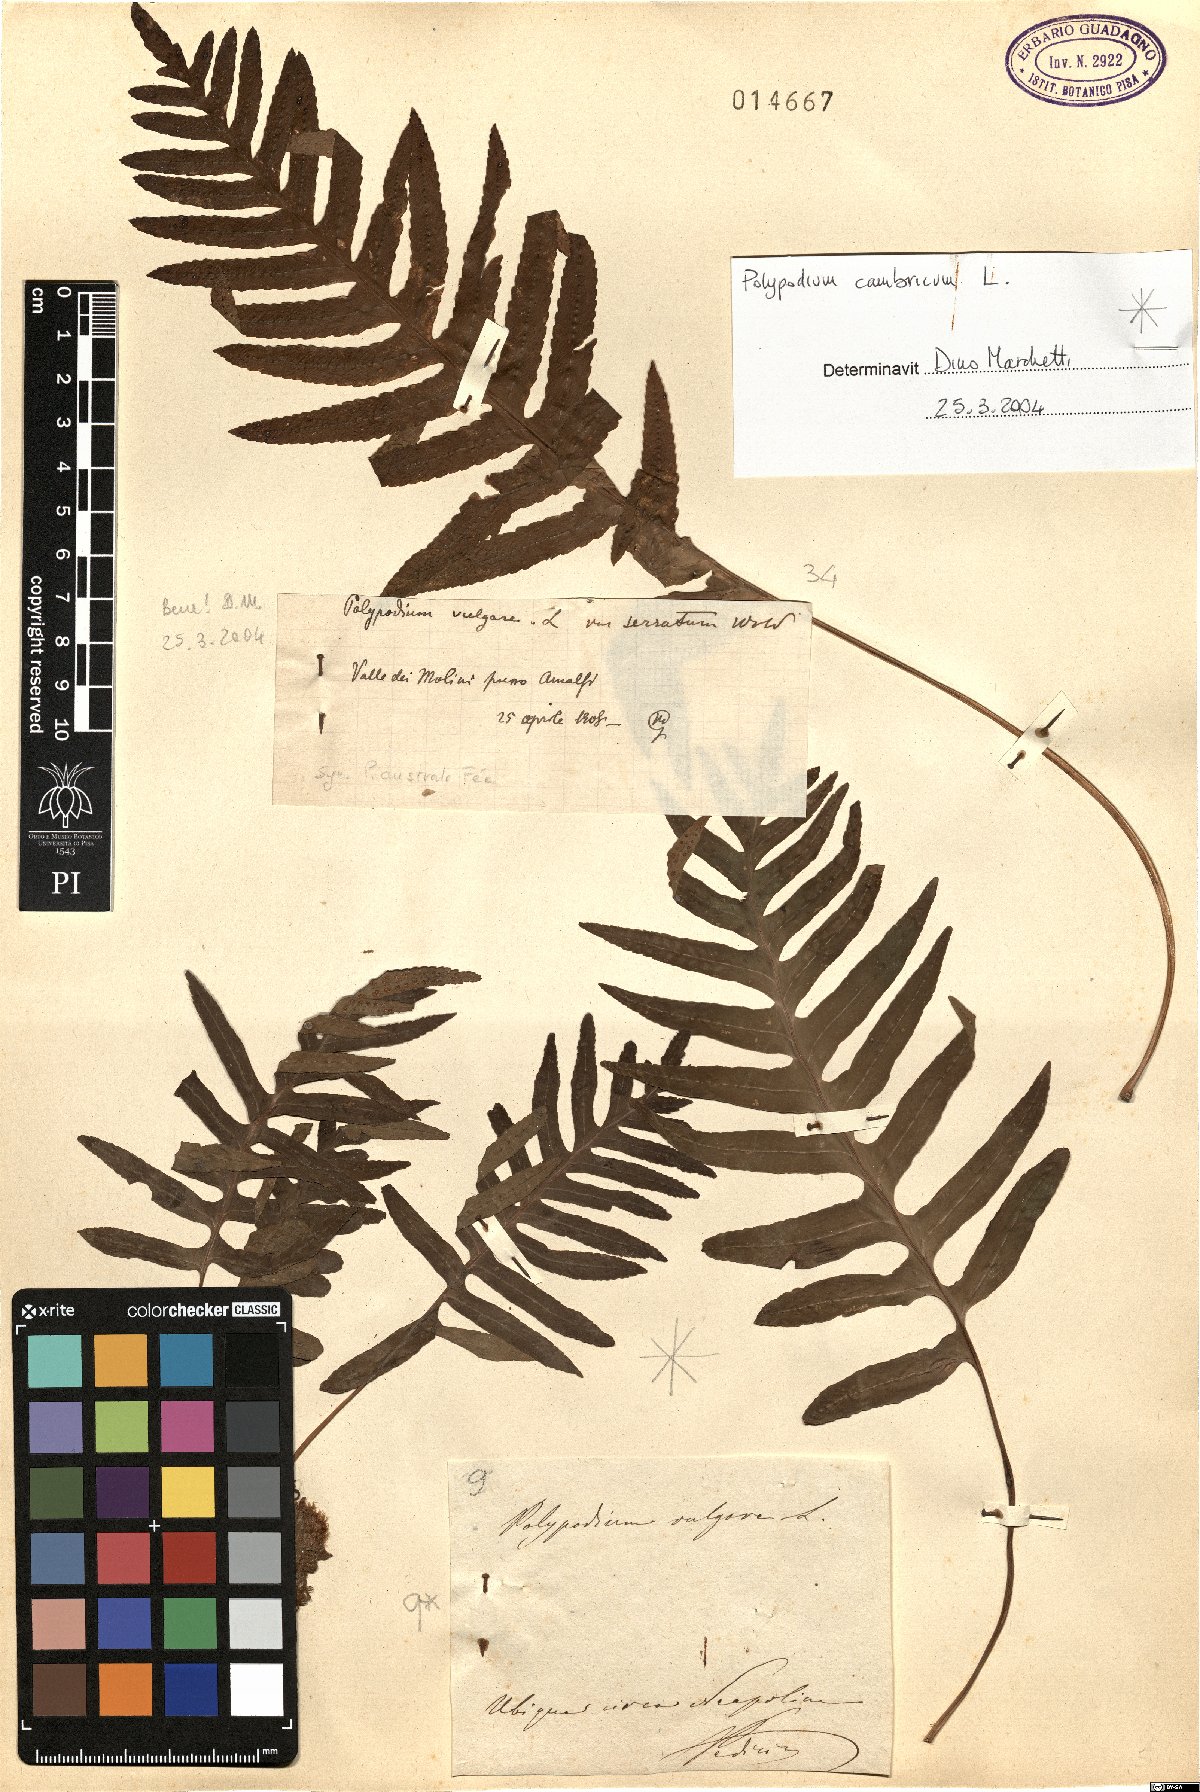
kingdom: Plantae
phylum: Tracheophyta
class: Polypodiopsida
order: Polypodiales
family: Polypodiaceae
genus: Polypodium
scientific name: Polypodium cambricum
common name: Southern polypody
